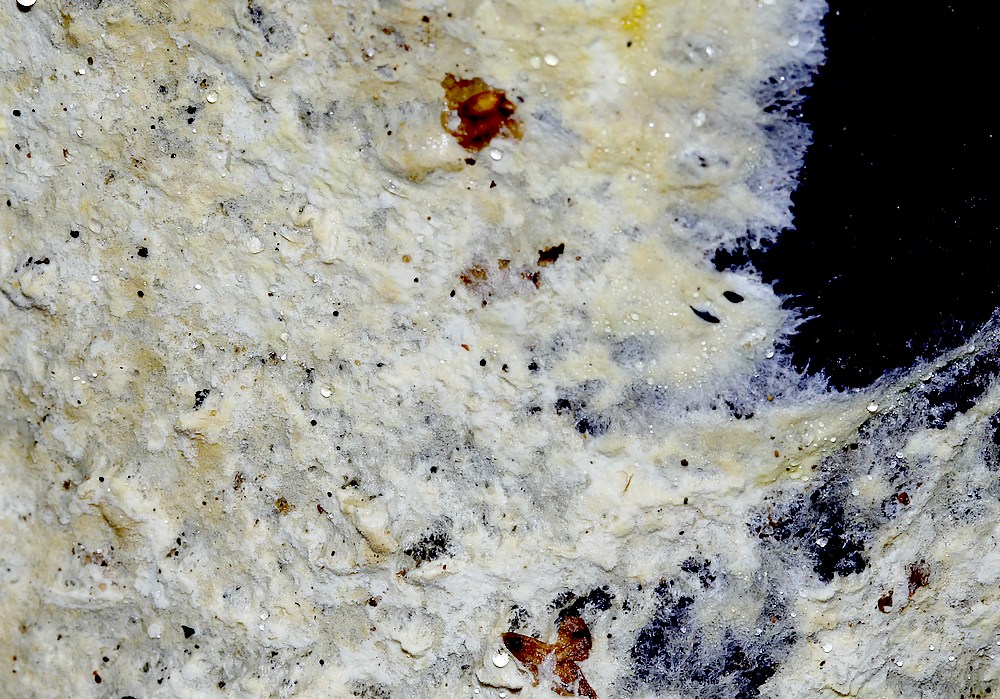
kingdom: Fungi
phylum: Basidiomycota
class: Agaricomycetes
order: Corticiales
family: Corticiaceae
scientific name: Corticiaceae
